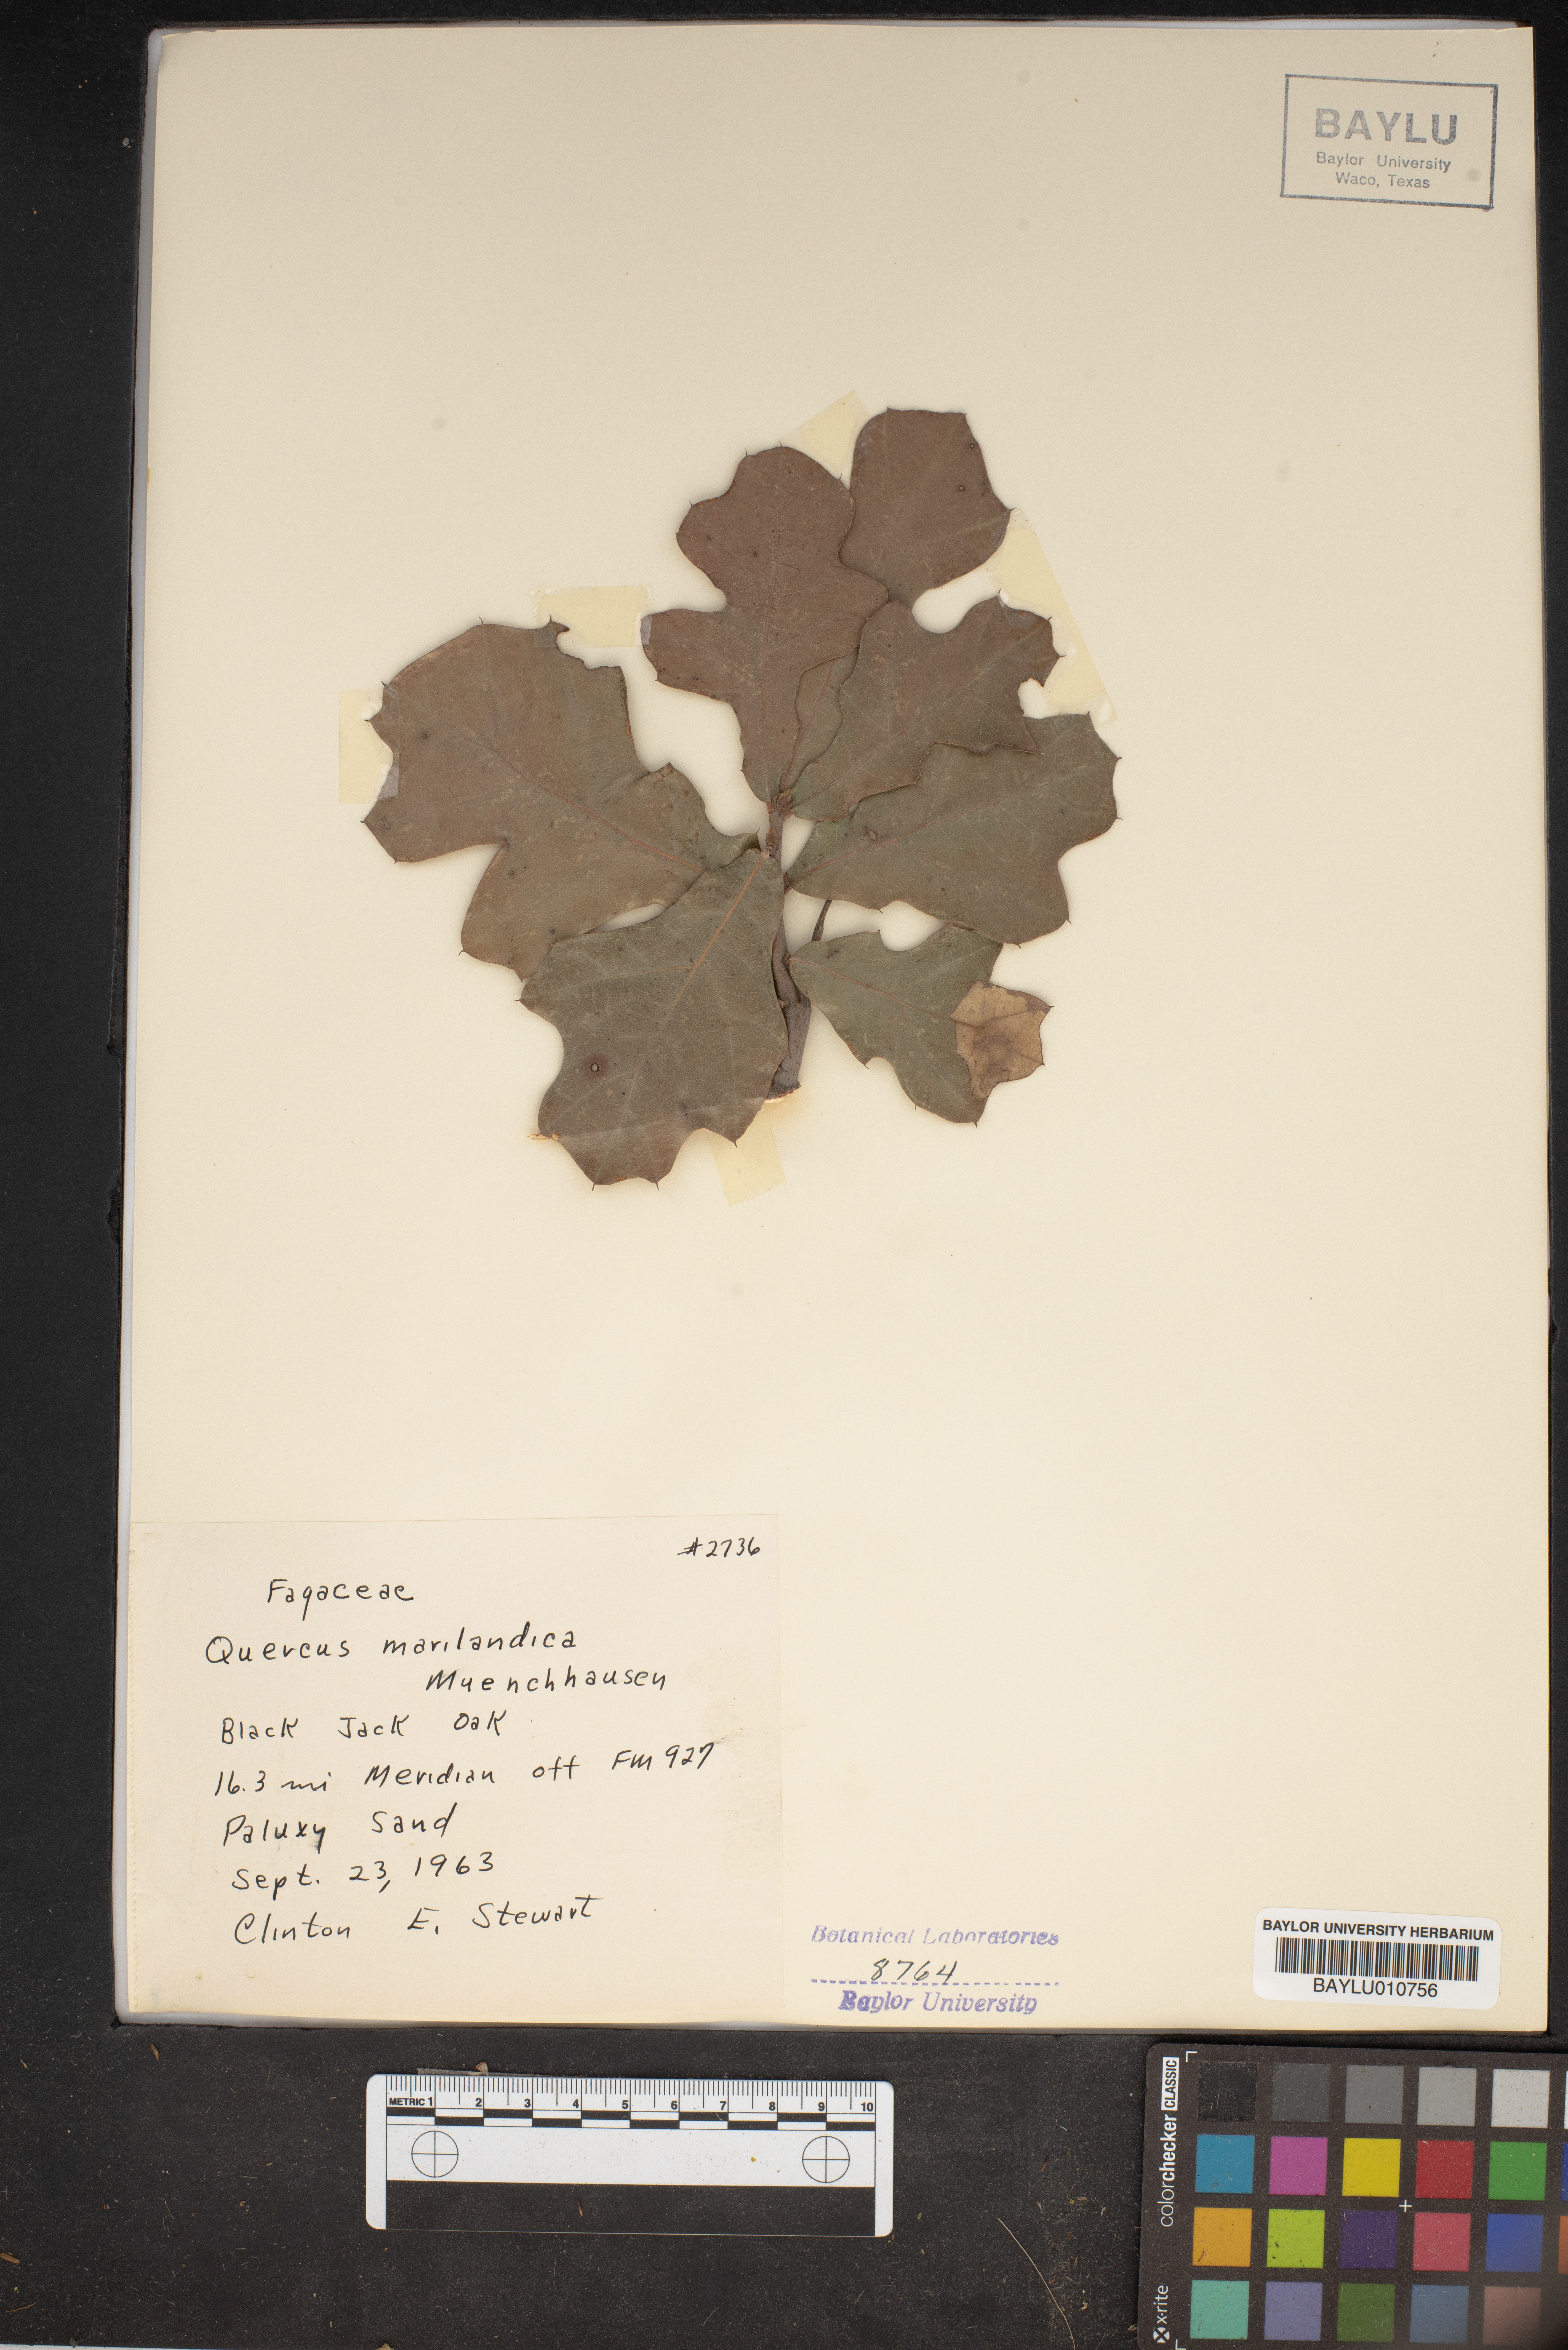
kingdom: Plantae
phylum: Tracheophyta
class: Magnoliopsida
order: Fagales
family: Fagaceae
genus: Quercus
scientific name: Quercus marilandica
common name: Blackjack oak
